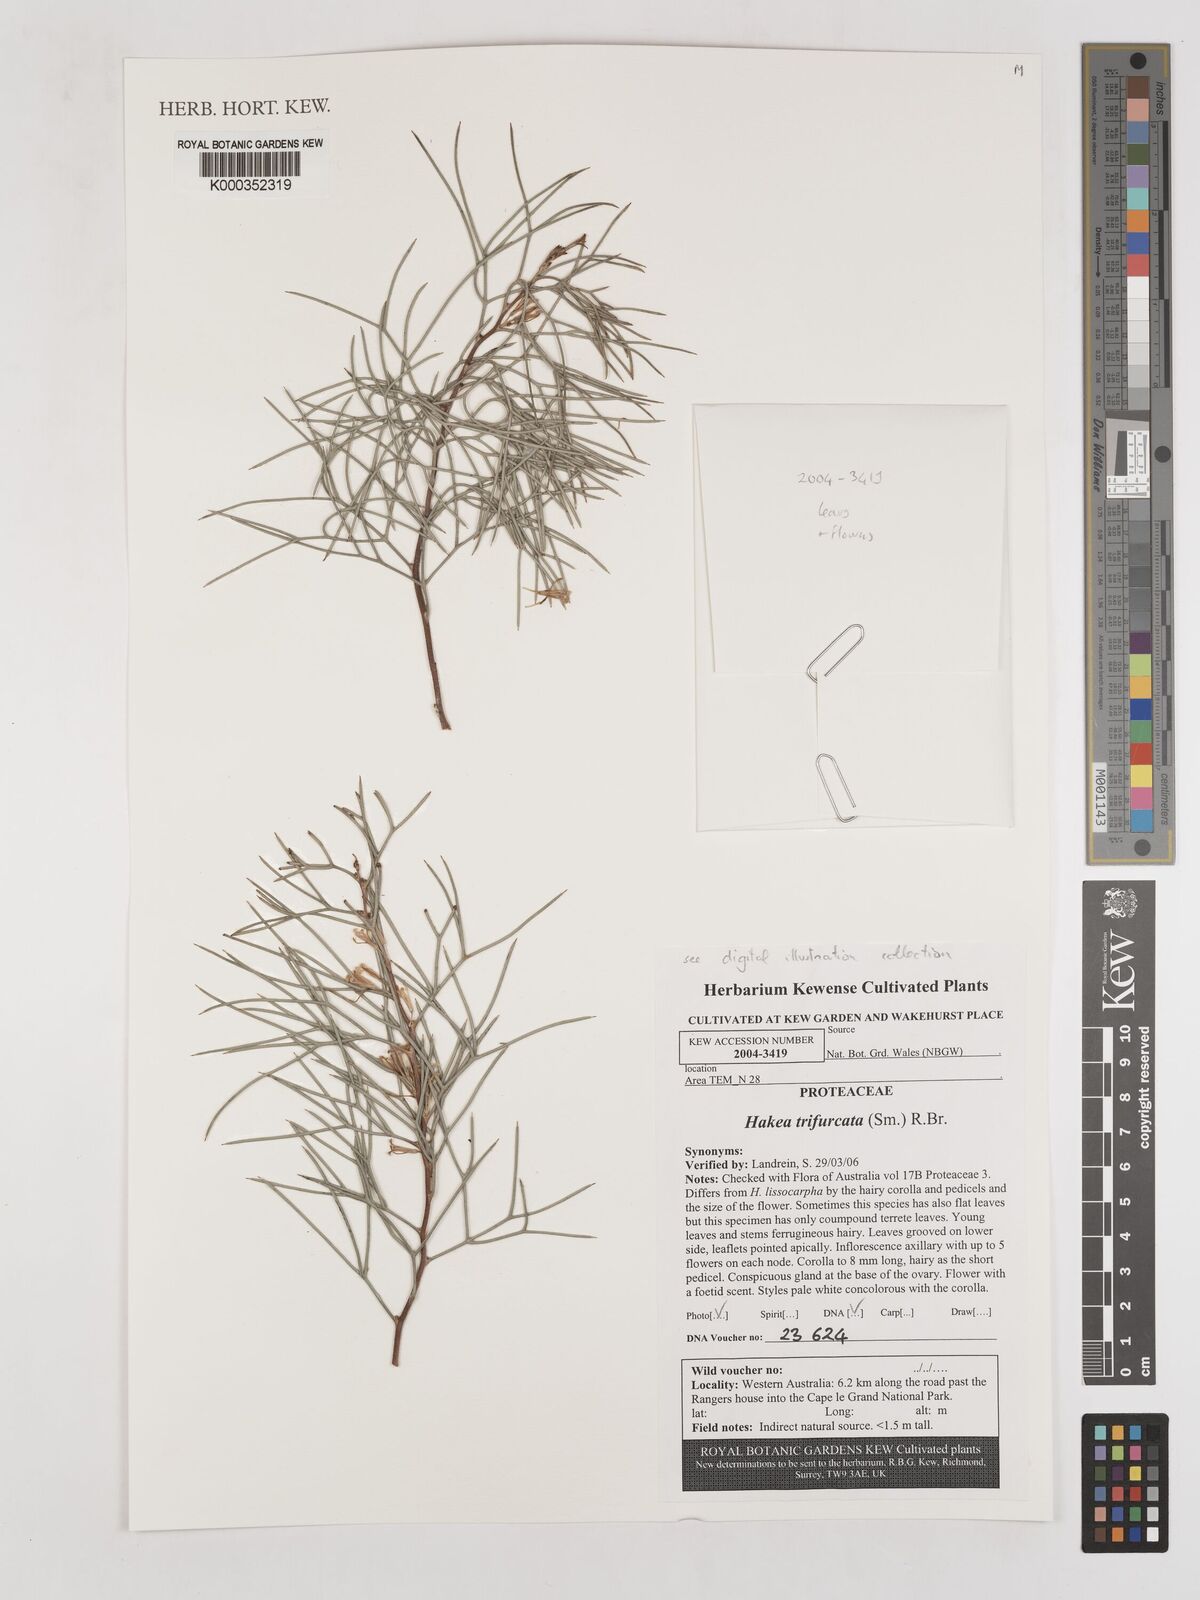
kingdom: Plantae
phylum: Tracheophyta
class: Magnoliopsida
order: Proteales
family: Proteaceae
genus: Hakea
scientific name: Hakea trifurcata
